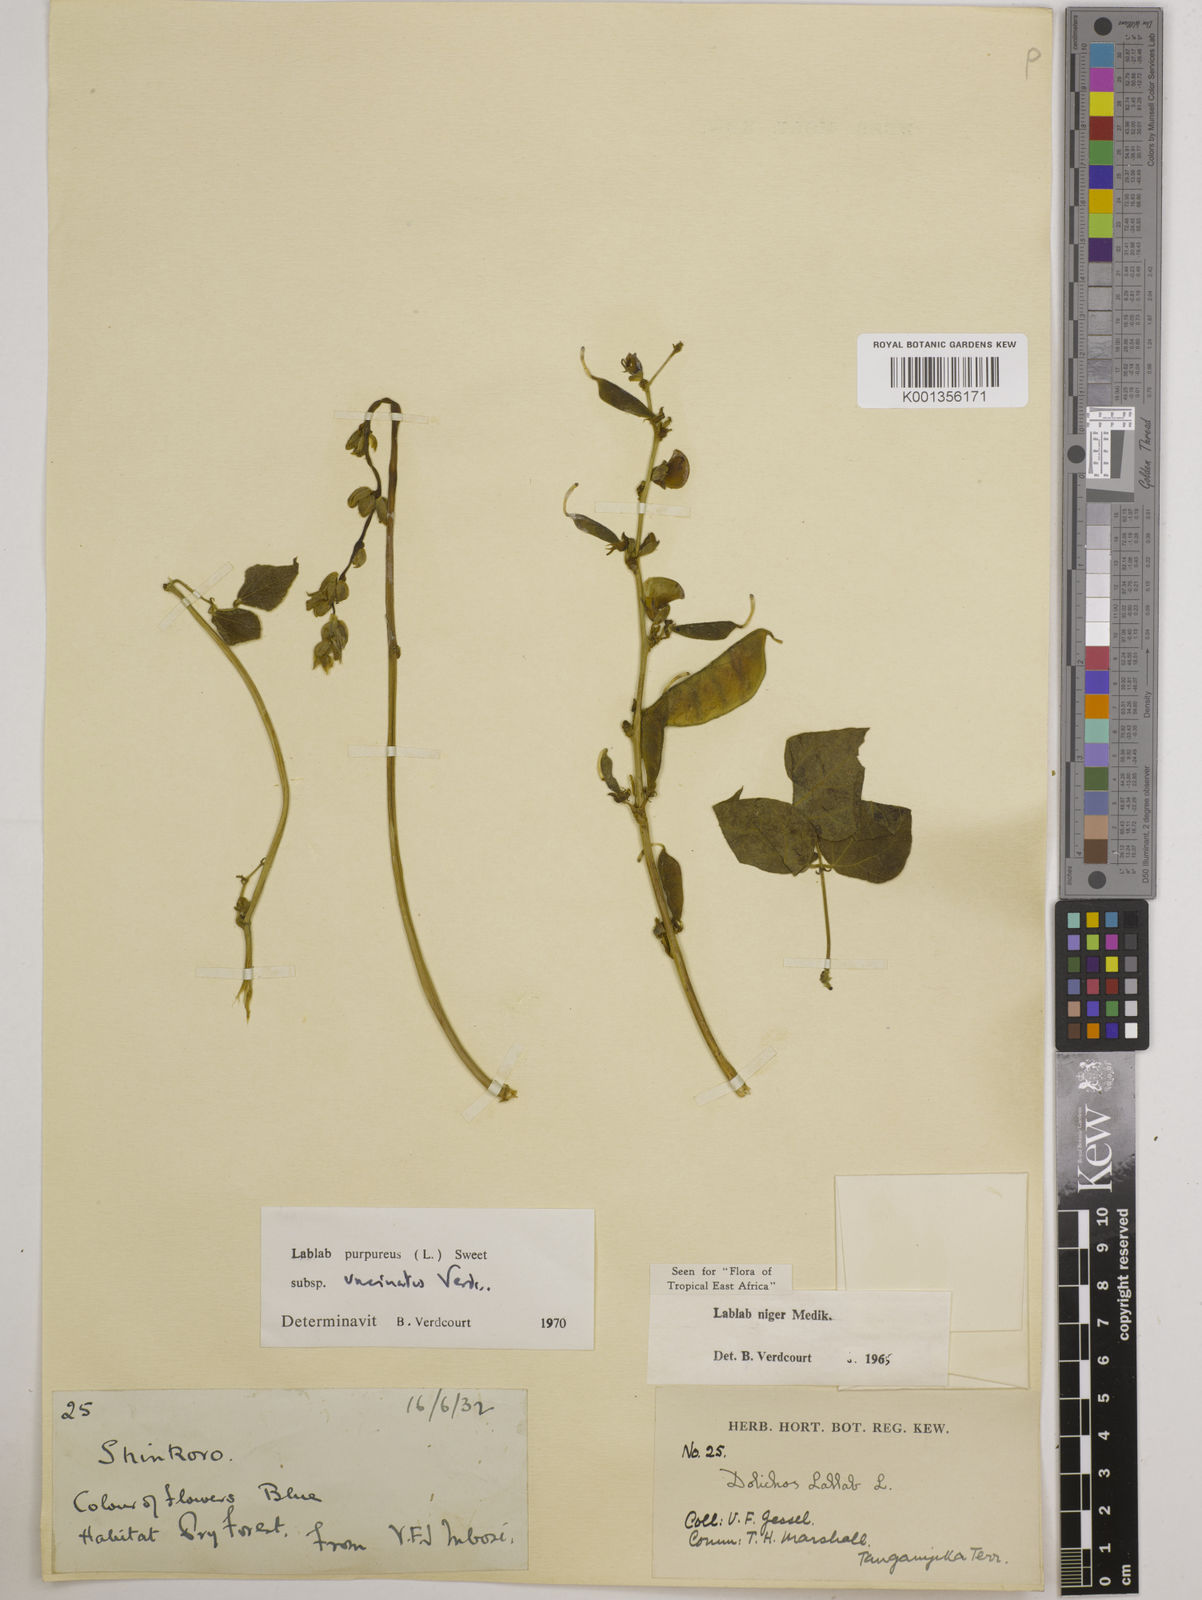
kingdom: Plantae
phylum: Tracheophyta
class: Magnoliopsida
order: Fabales
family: Fabaceae
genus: Lablab
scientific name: Lablab purpureus
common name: Lablab-bean
